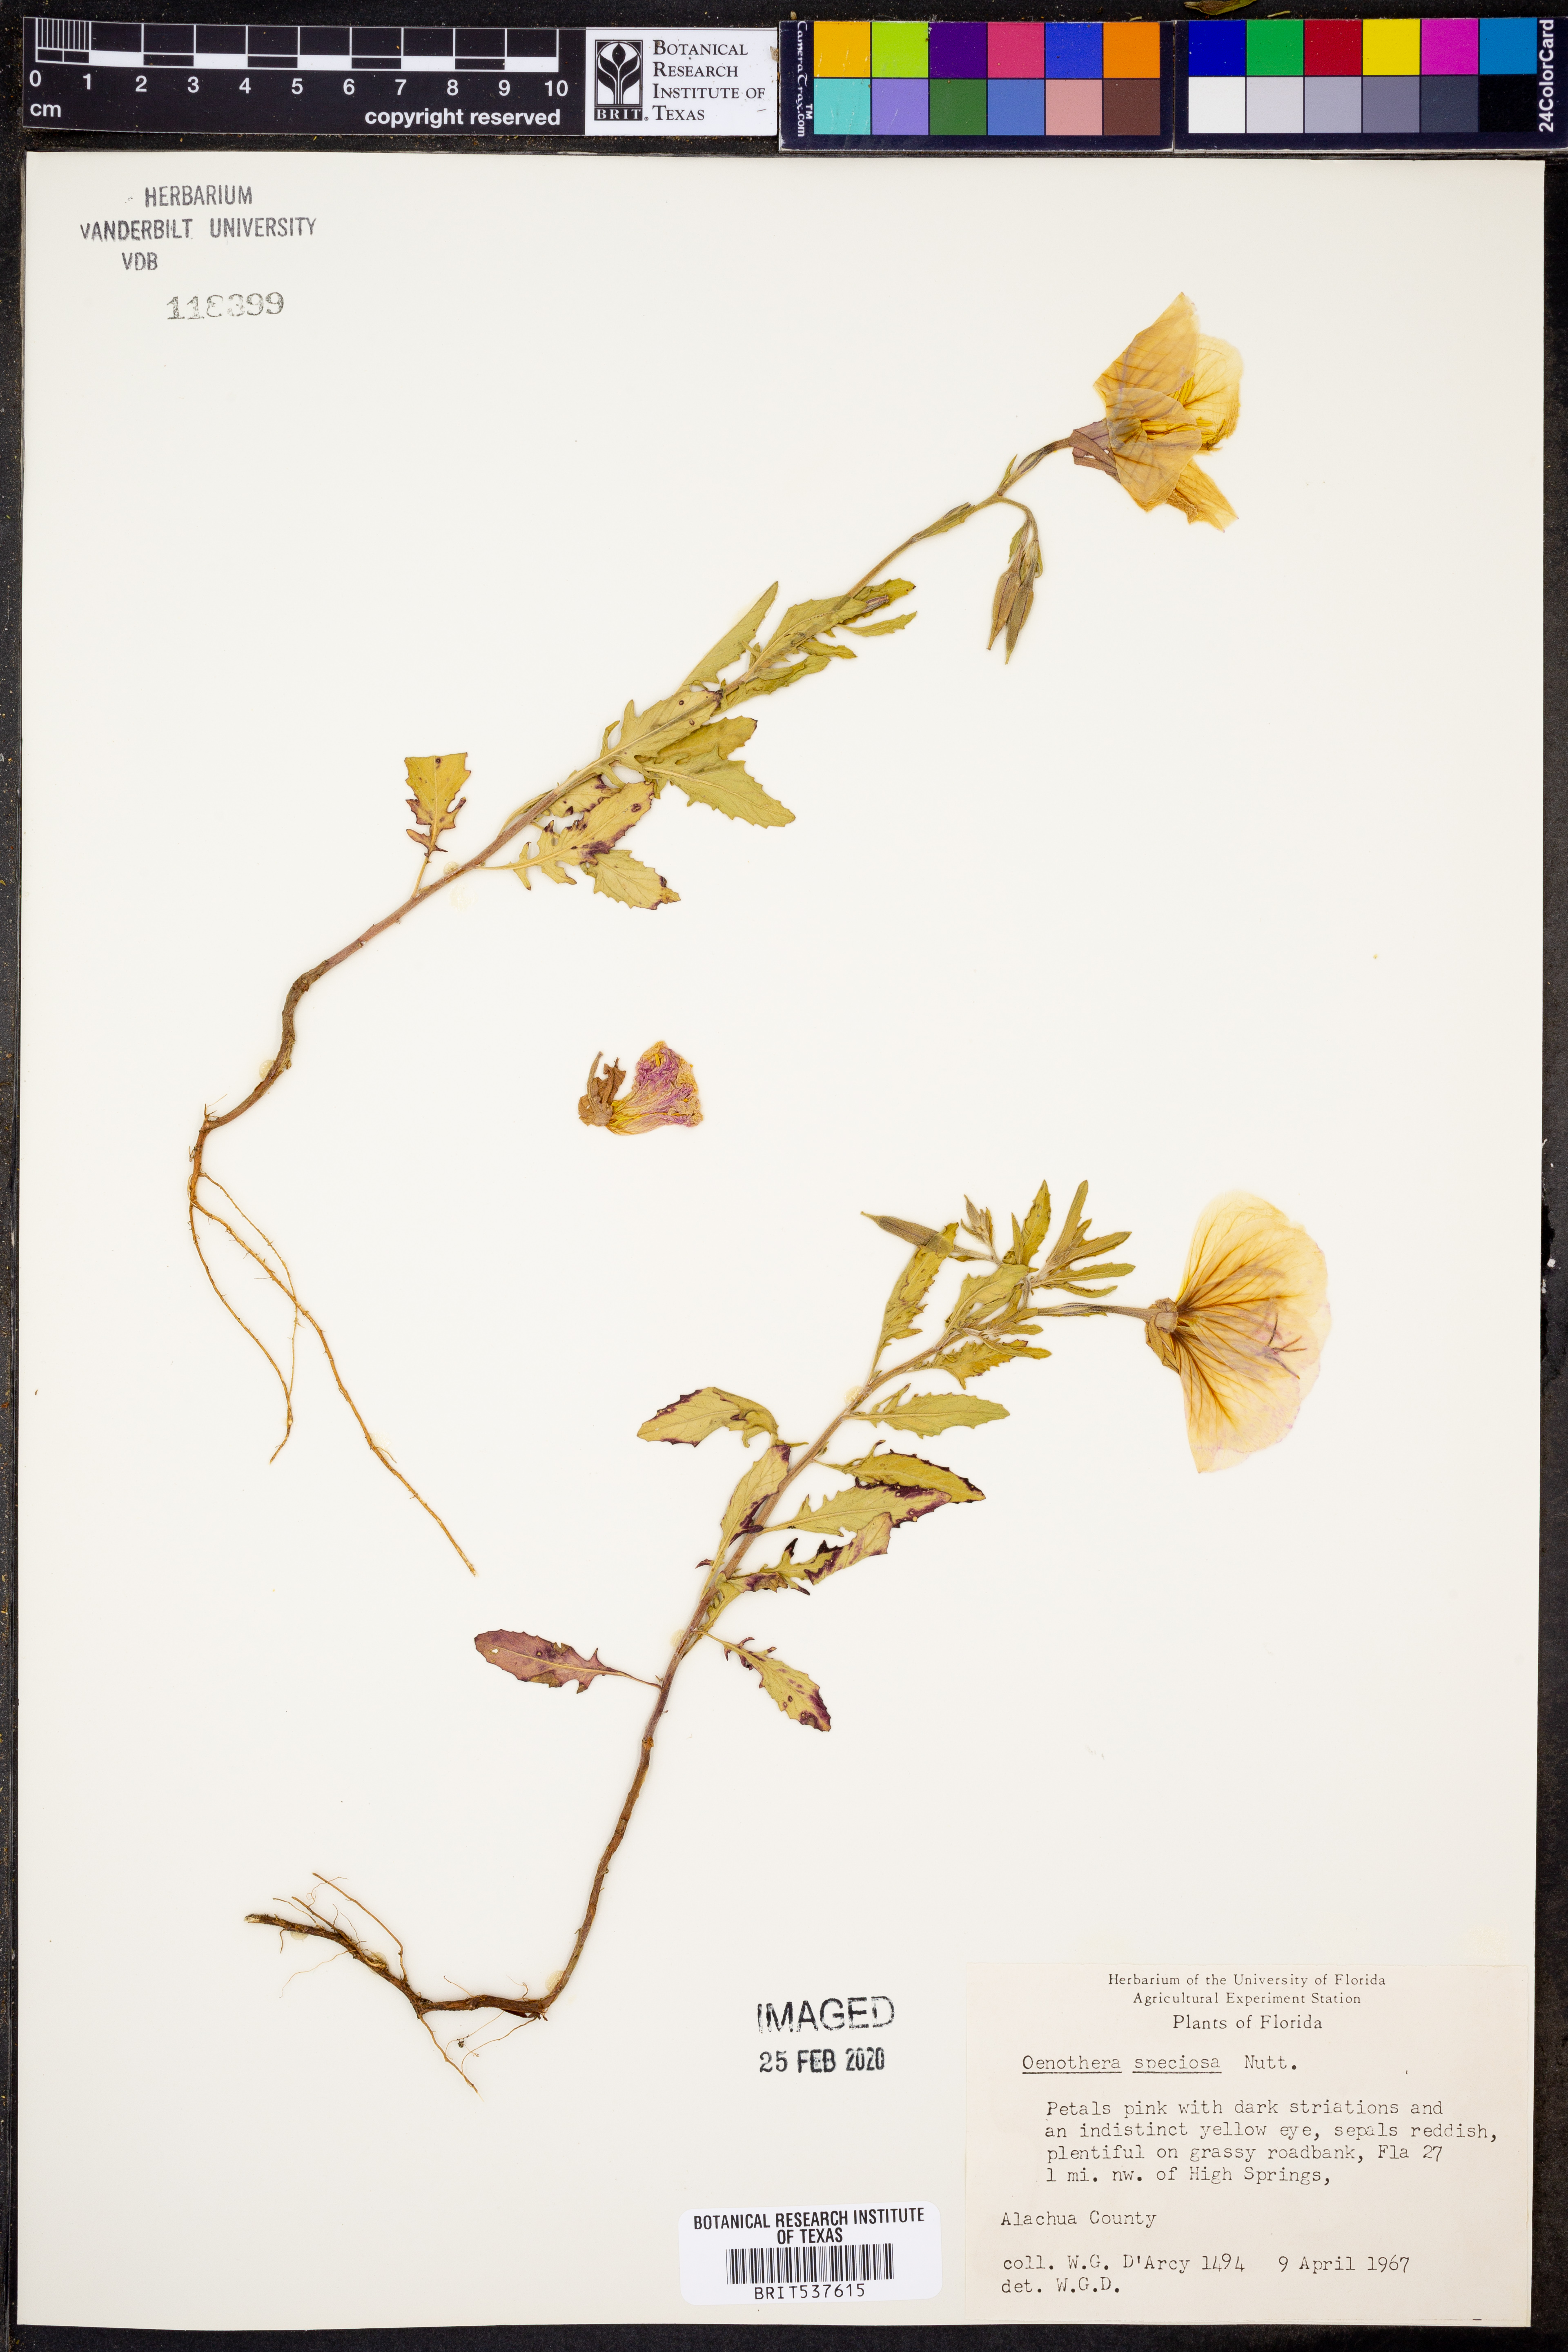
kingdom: Plantae
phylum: Tracheophyta
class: Magnoliopsida
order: Myrtales
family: Onagraceae
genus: Oenothera
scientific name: Oenothera speciosa
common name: White evening-primrose
